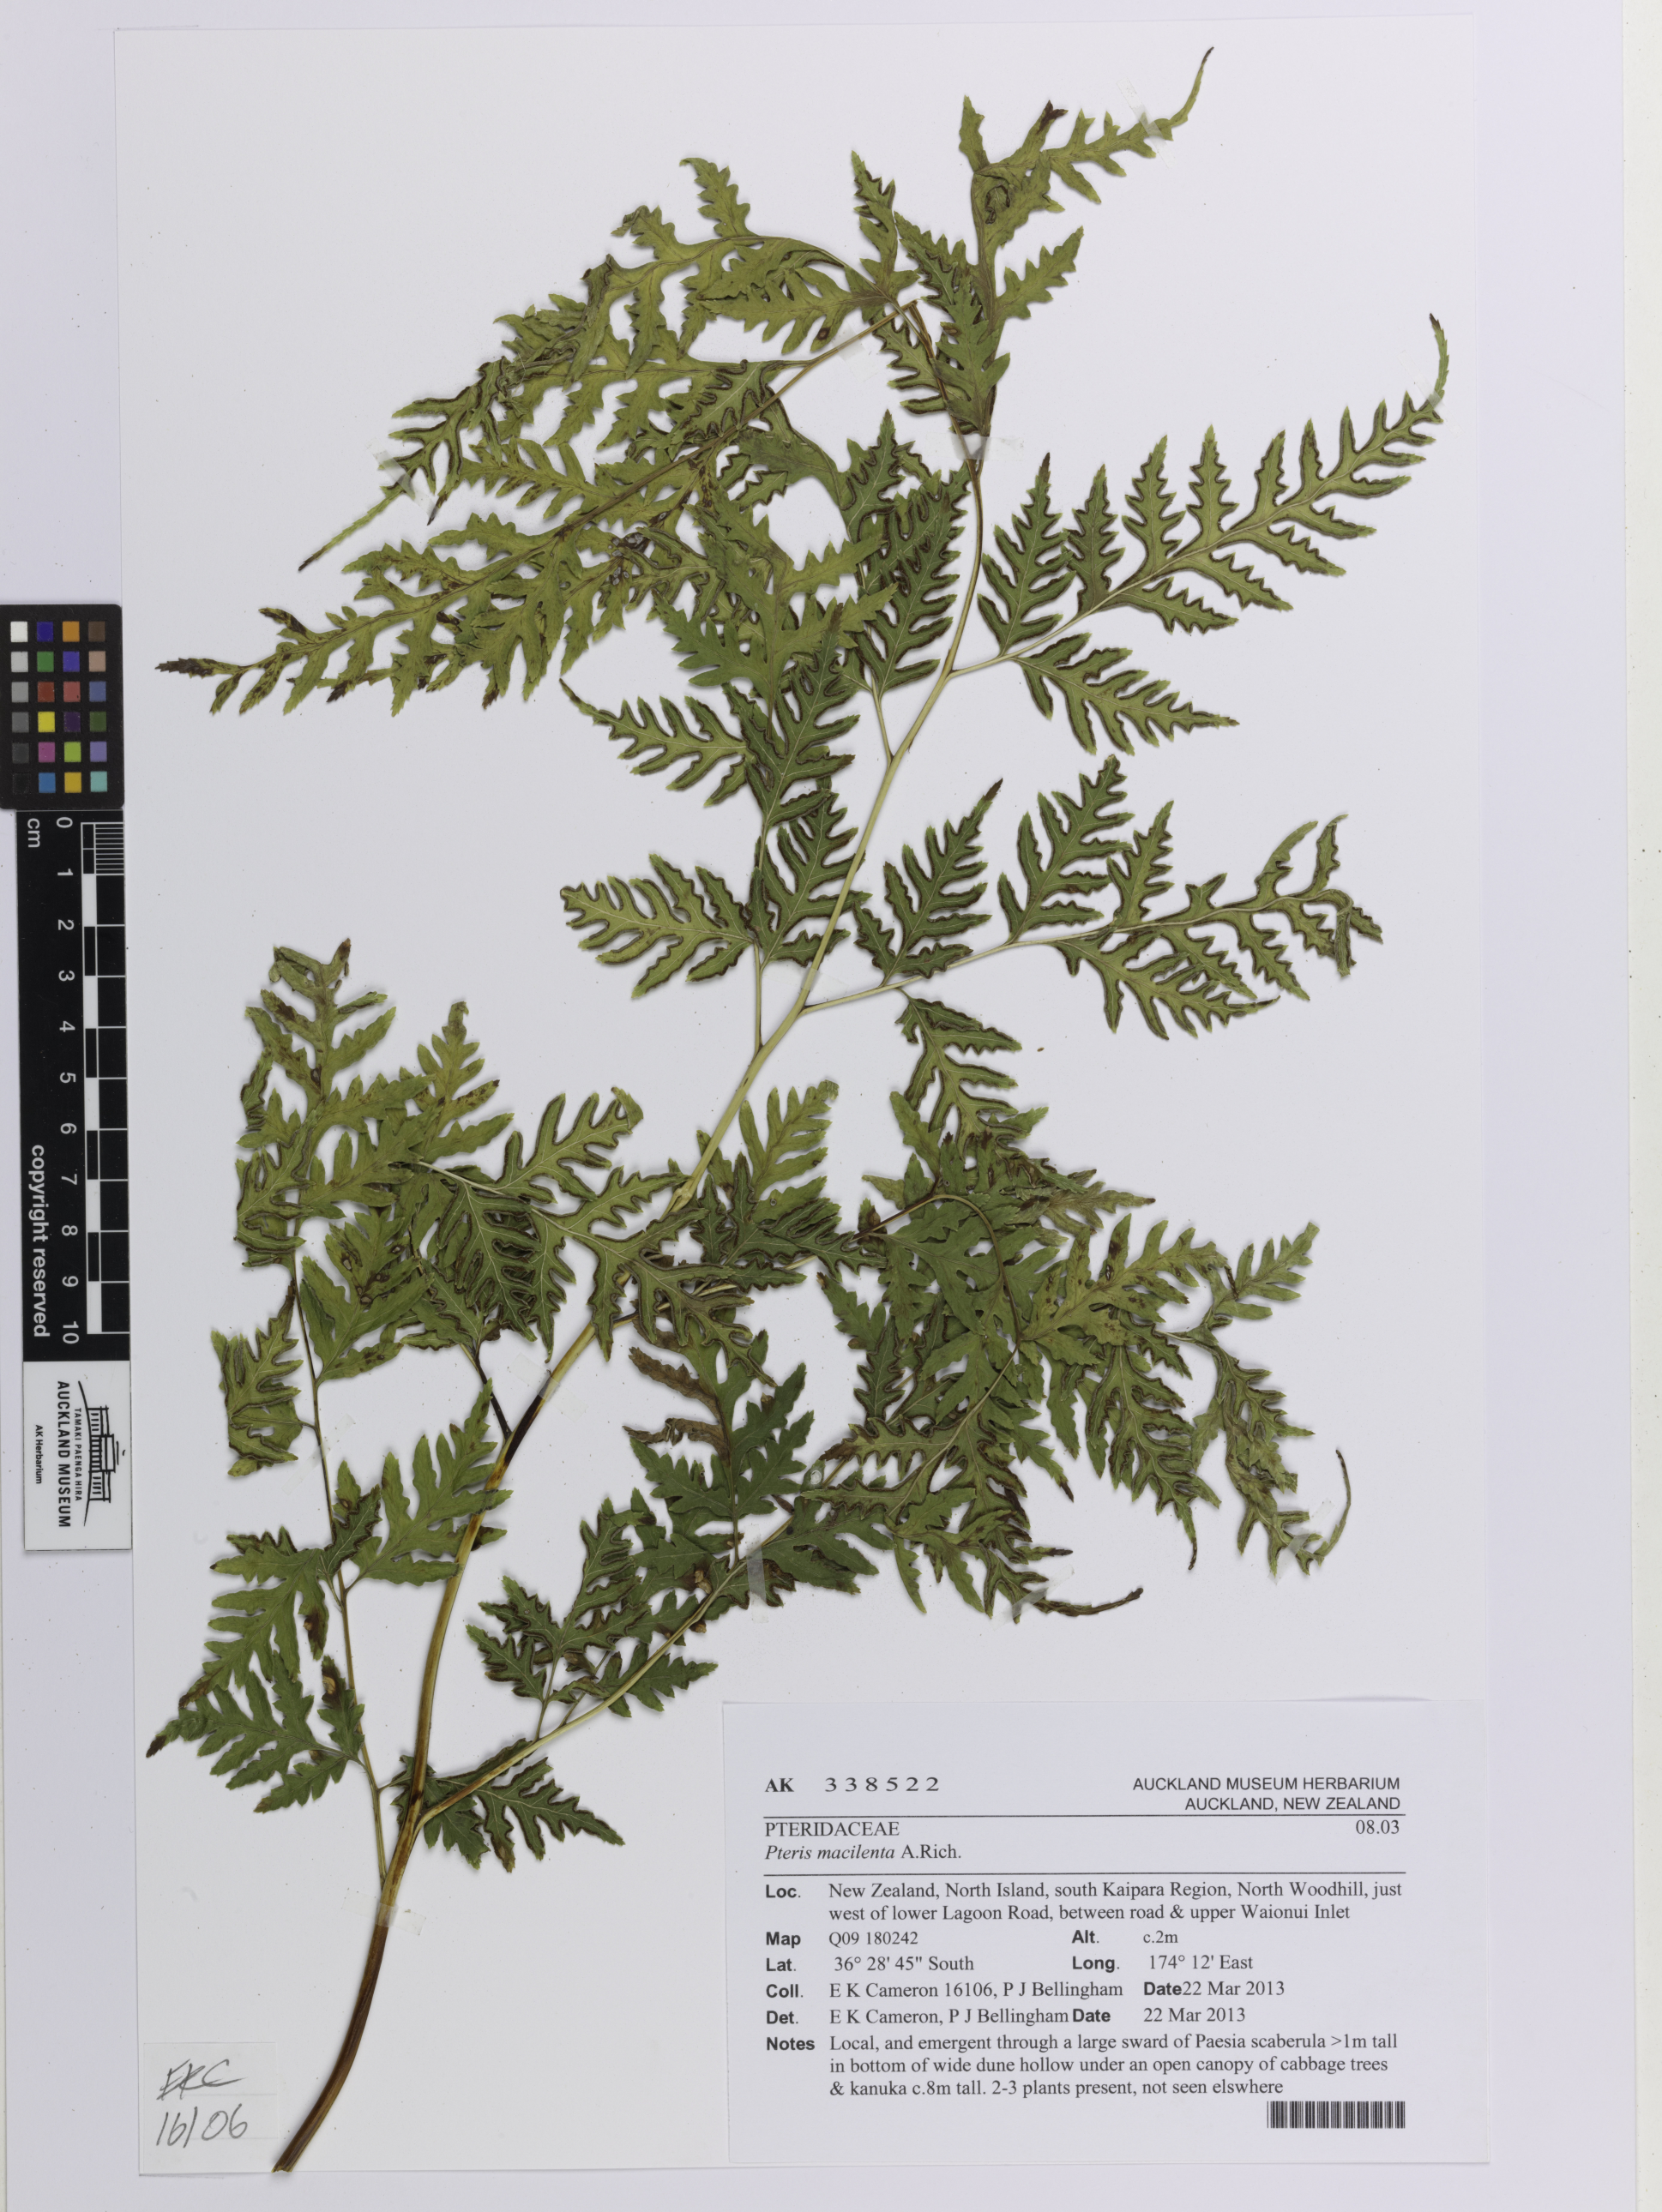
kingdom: Plantae
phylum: Tracheophyta
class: Polypodiopsida
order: Polypodiales
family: Pteridaceae
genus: Pteris
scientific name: Pteris macilenta
